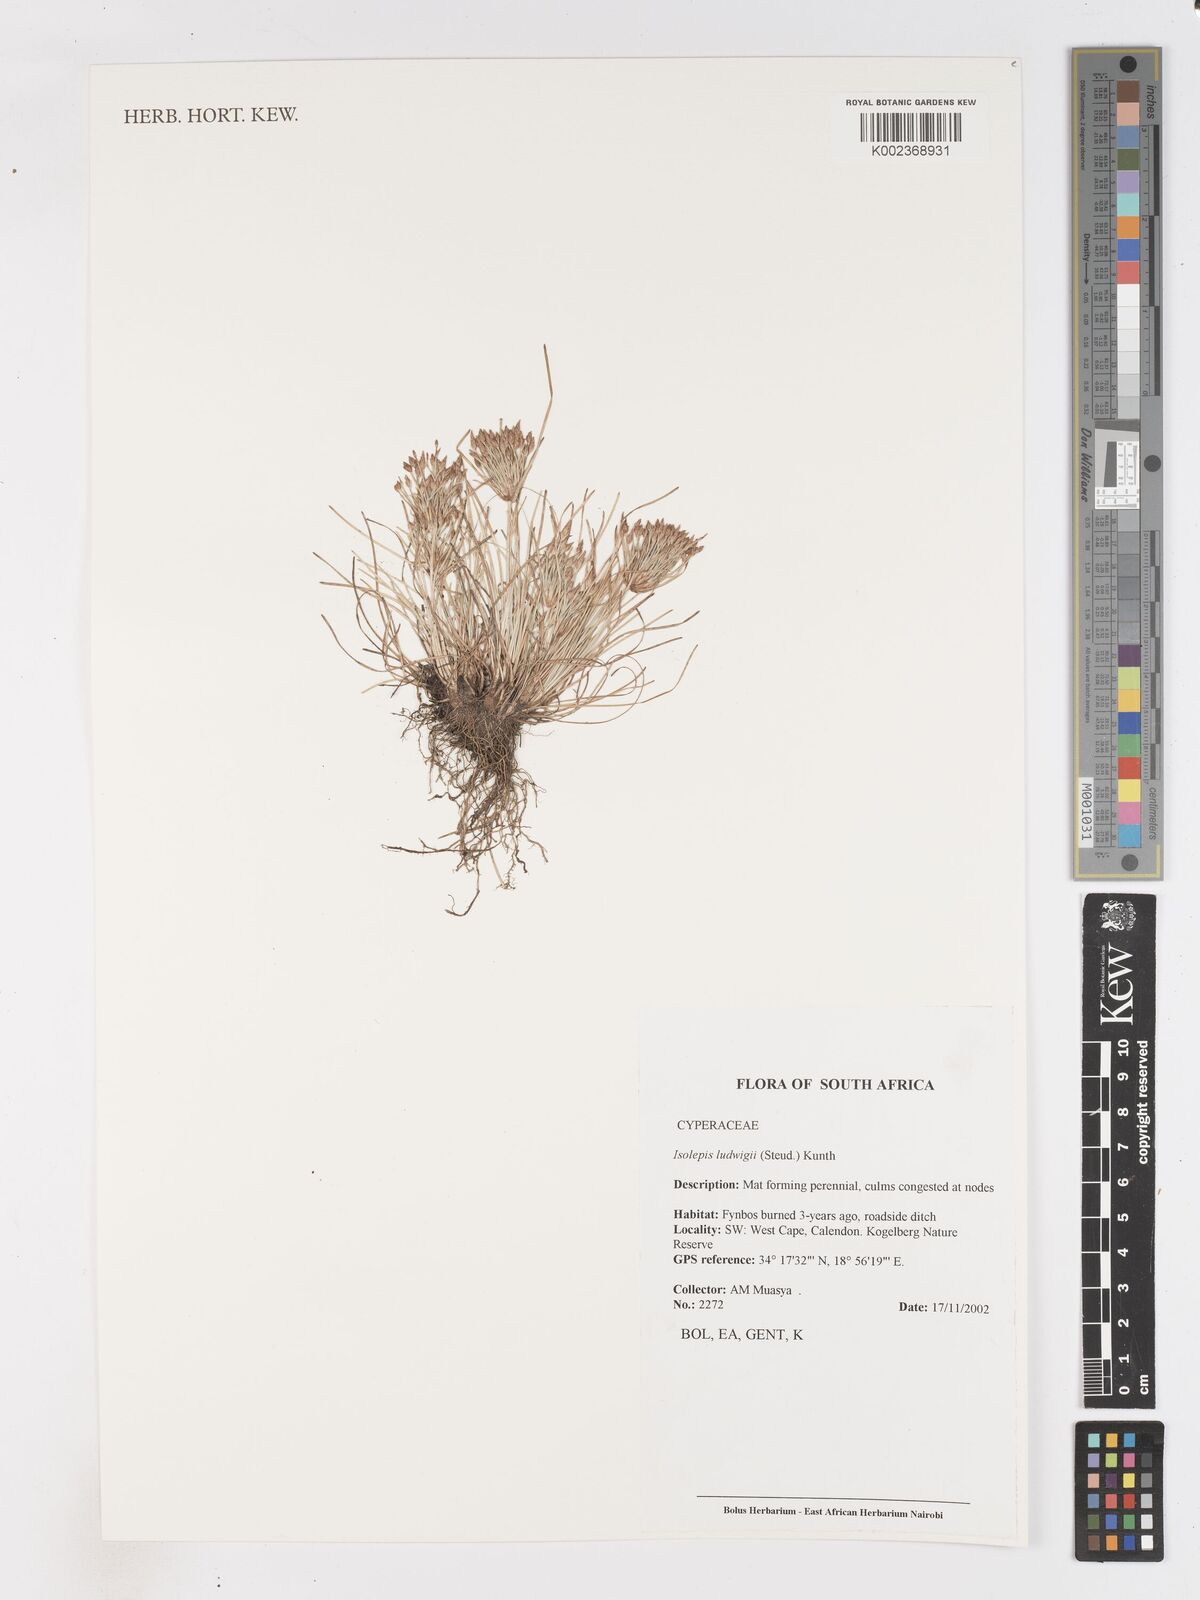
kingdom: Plantae
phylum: Tracheophyta
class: Liliopsida
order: Poales
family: Cyperaceae
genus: Isolepis
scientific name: Isolepis ludwigii
